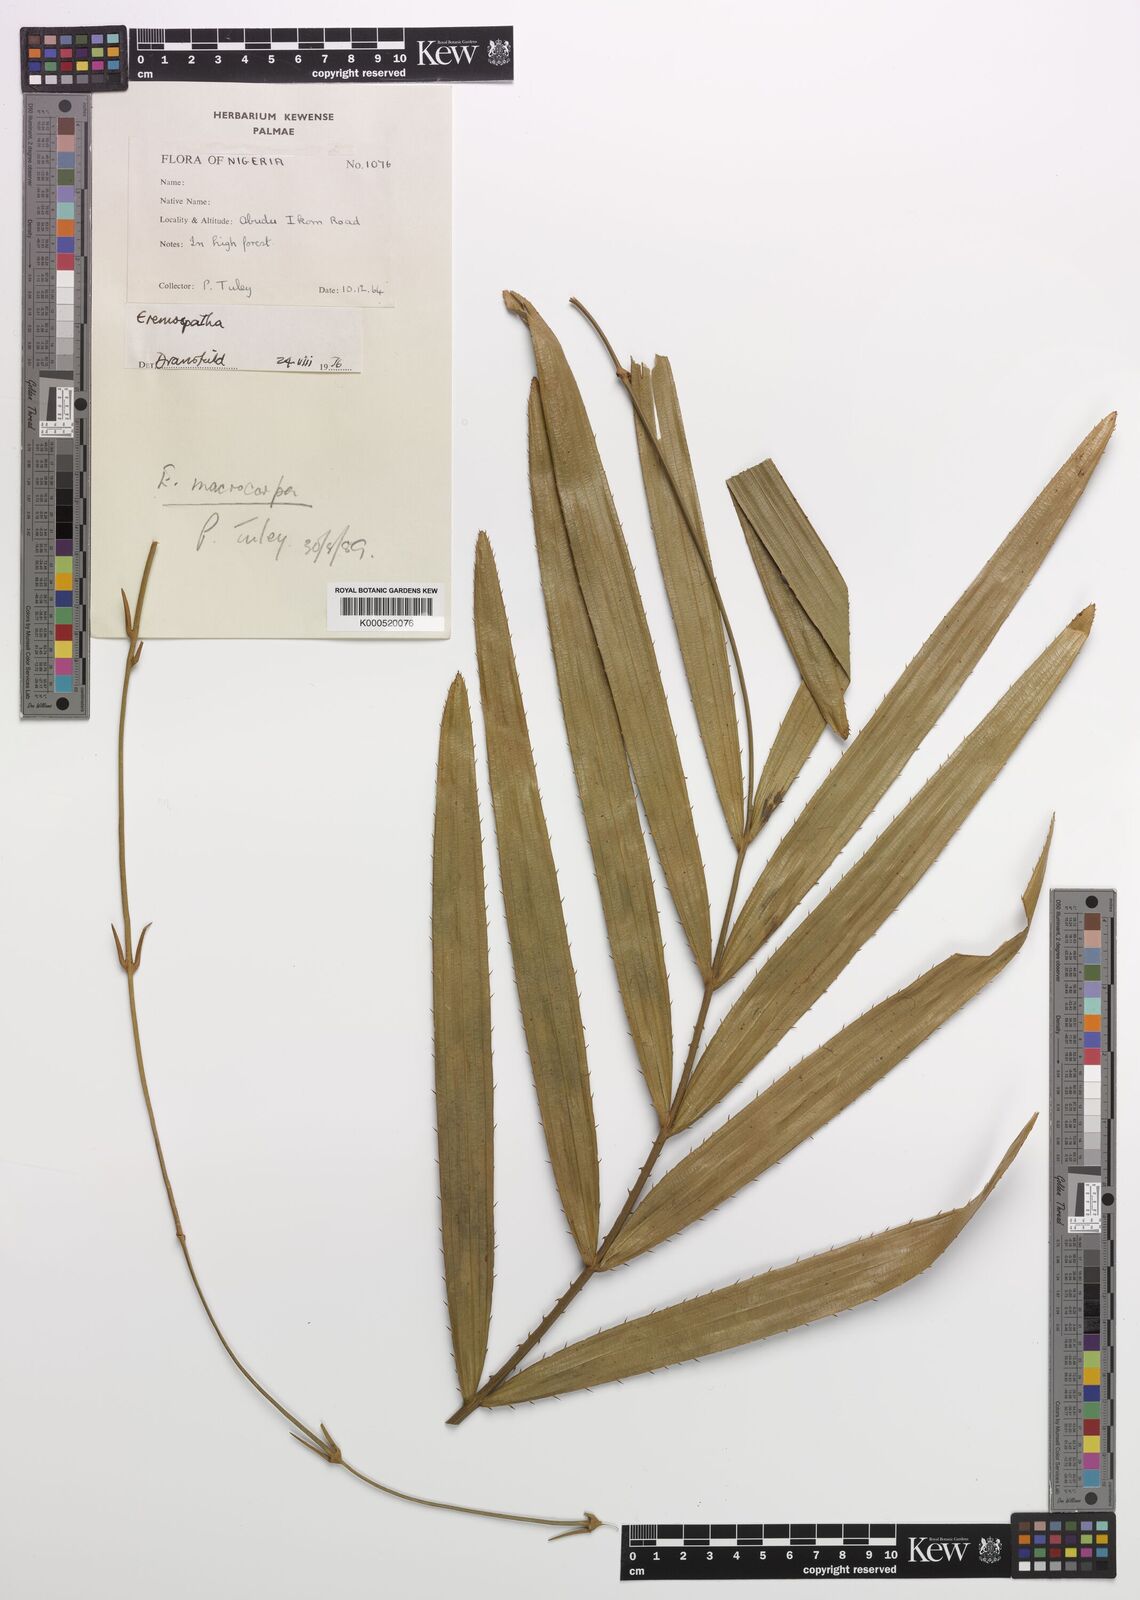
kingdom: Plantae
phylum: Tracheophyta
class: Liliopsida
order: Arecales
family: Arecaceae
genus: Eremospatha
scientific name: Eremospatha
